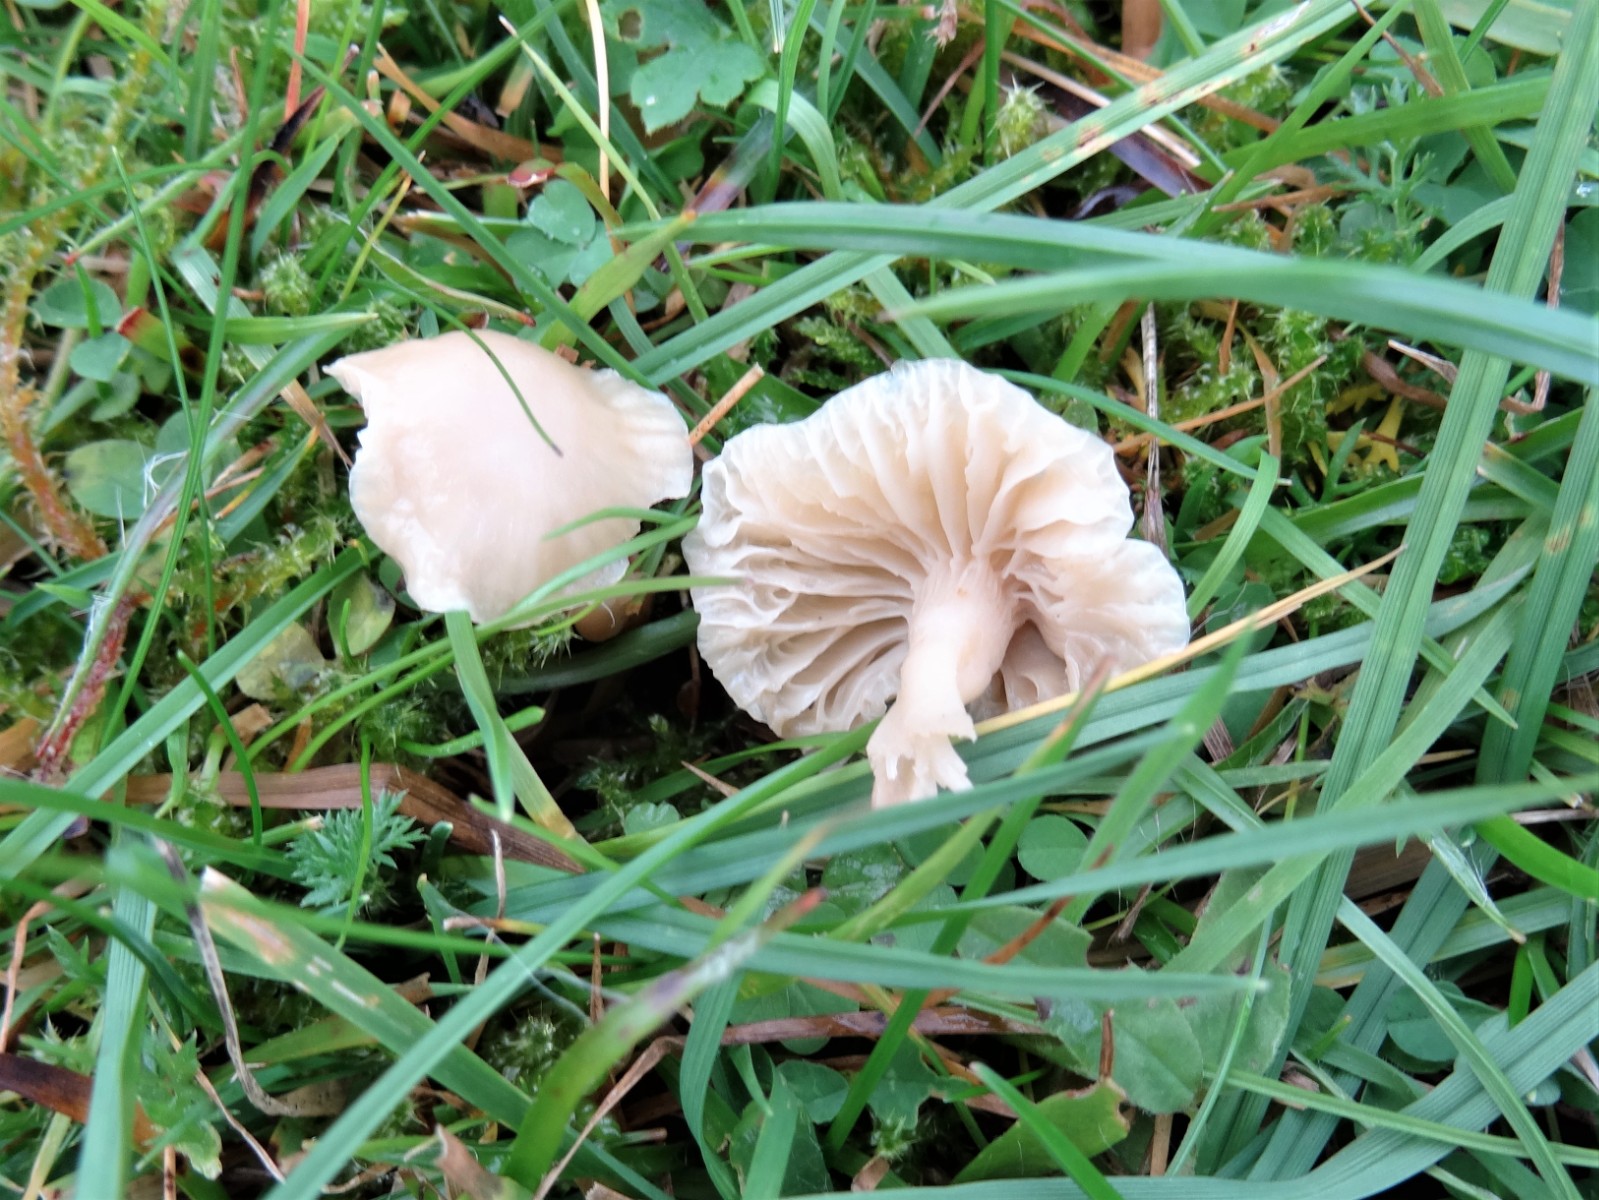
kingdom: Fungi
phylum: Basidiomycota
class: Agaricomycetes
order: Agaricales
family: Hygrophoraceae
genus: Cuphophyllus
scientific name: Cuphophyllus
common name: vokshat
